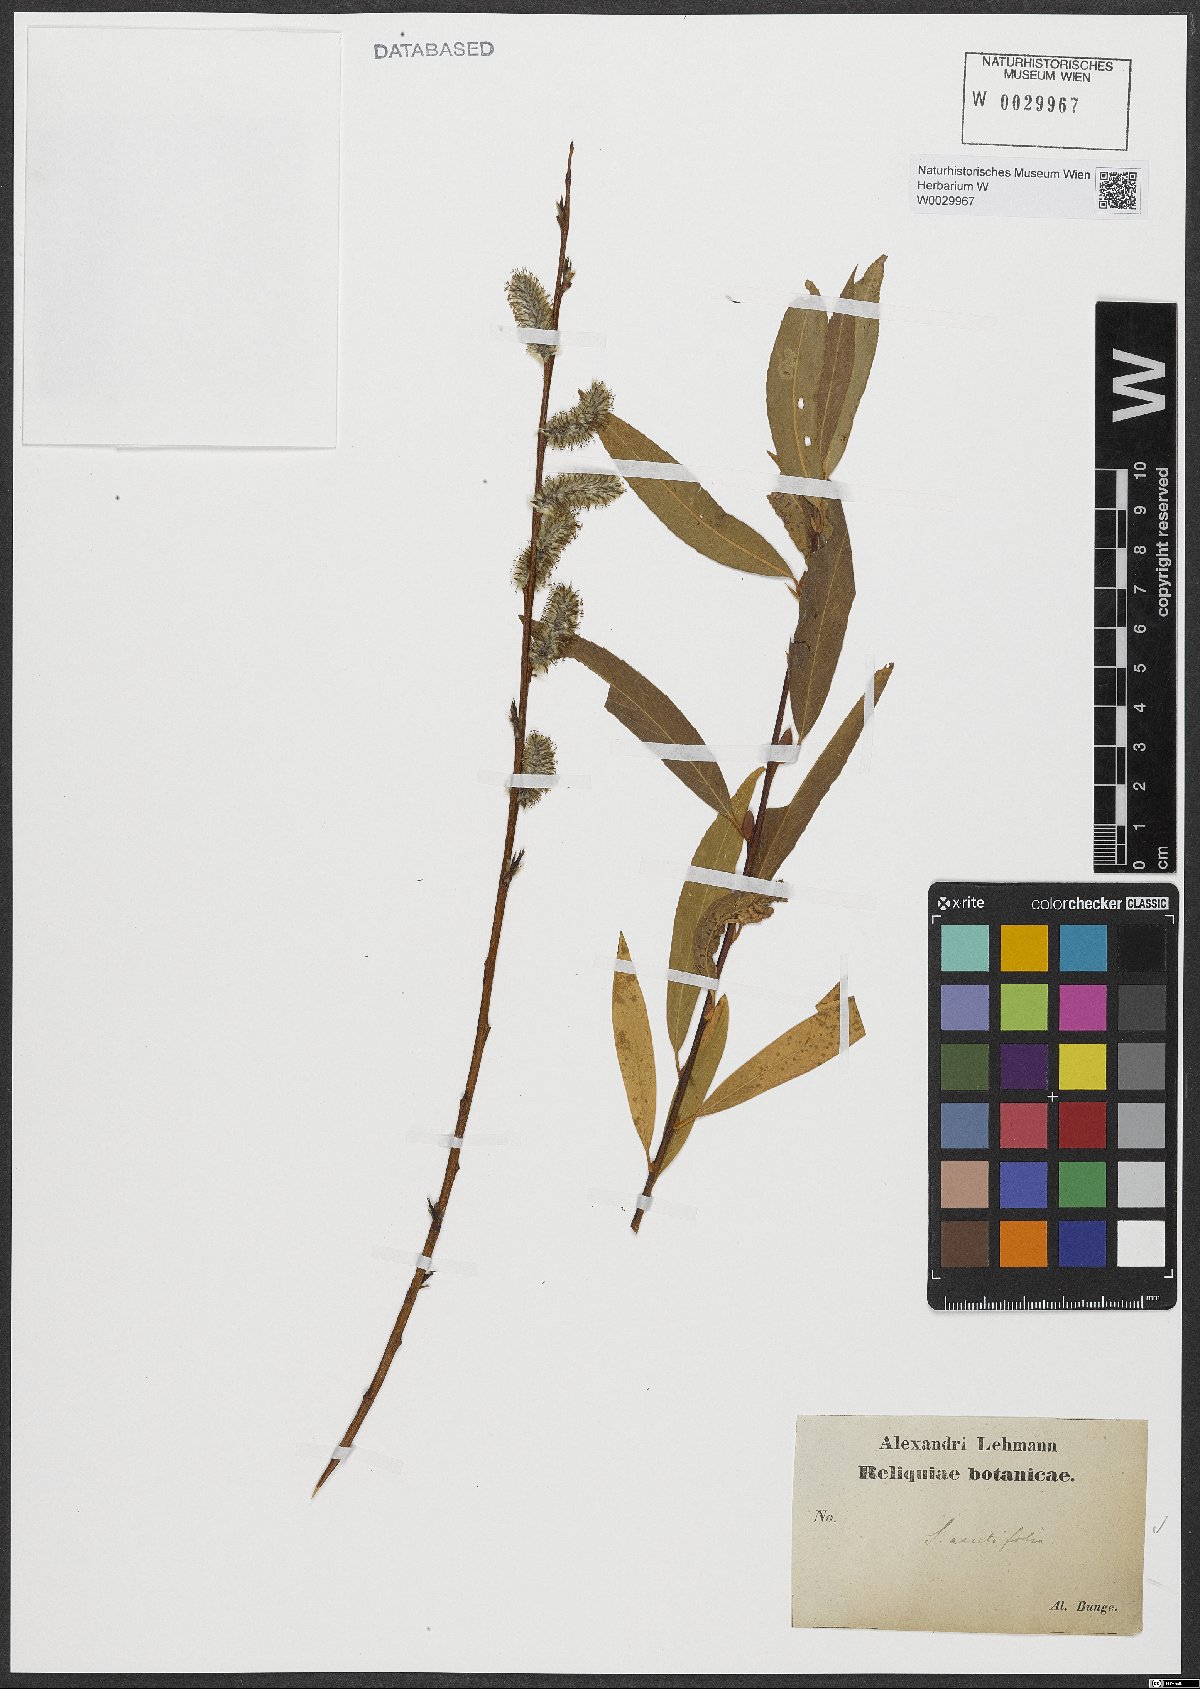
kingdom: Plantae
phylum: Tracheophyta
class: Magnoliopsida
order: Malpighiales
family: Salicaceae
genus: Salix
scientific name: Salix acutifolia
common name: Siberian violet-willow
